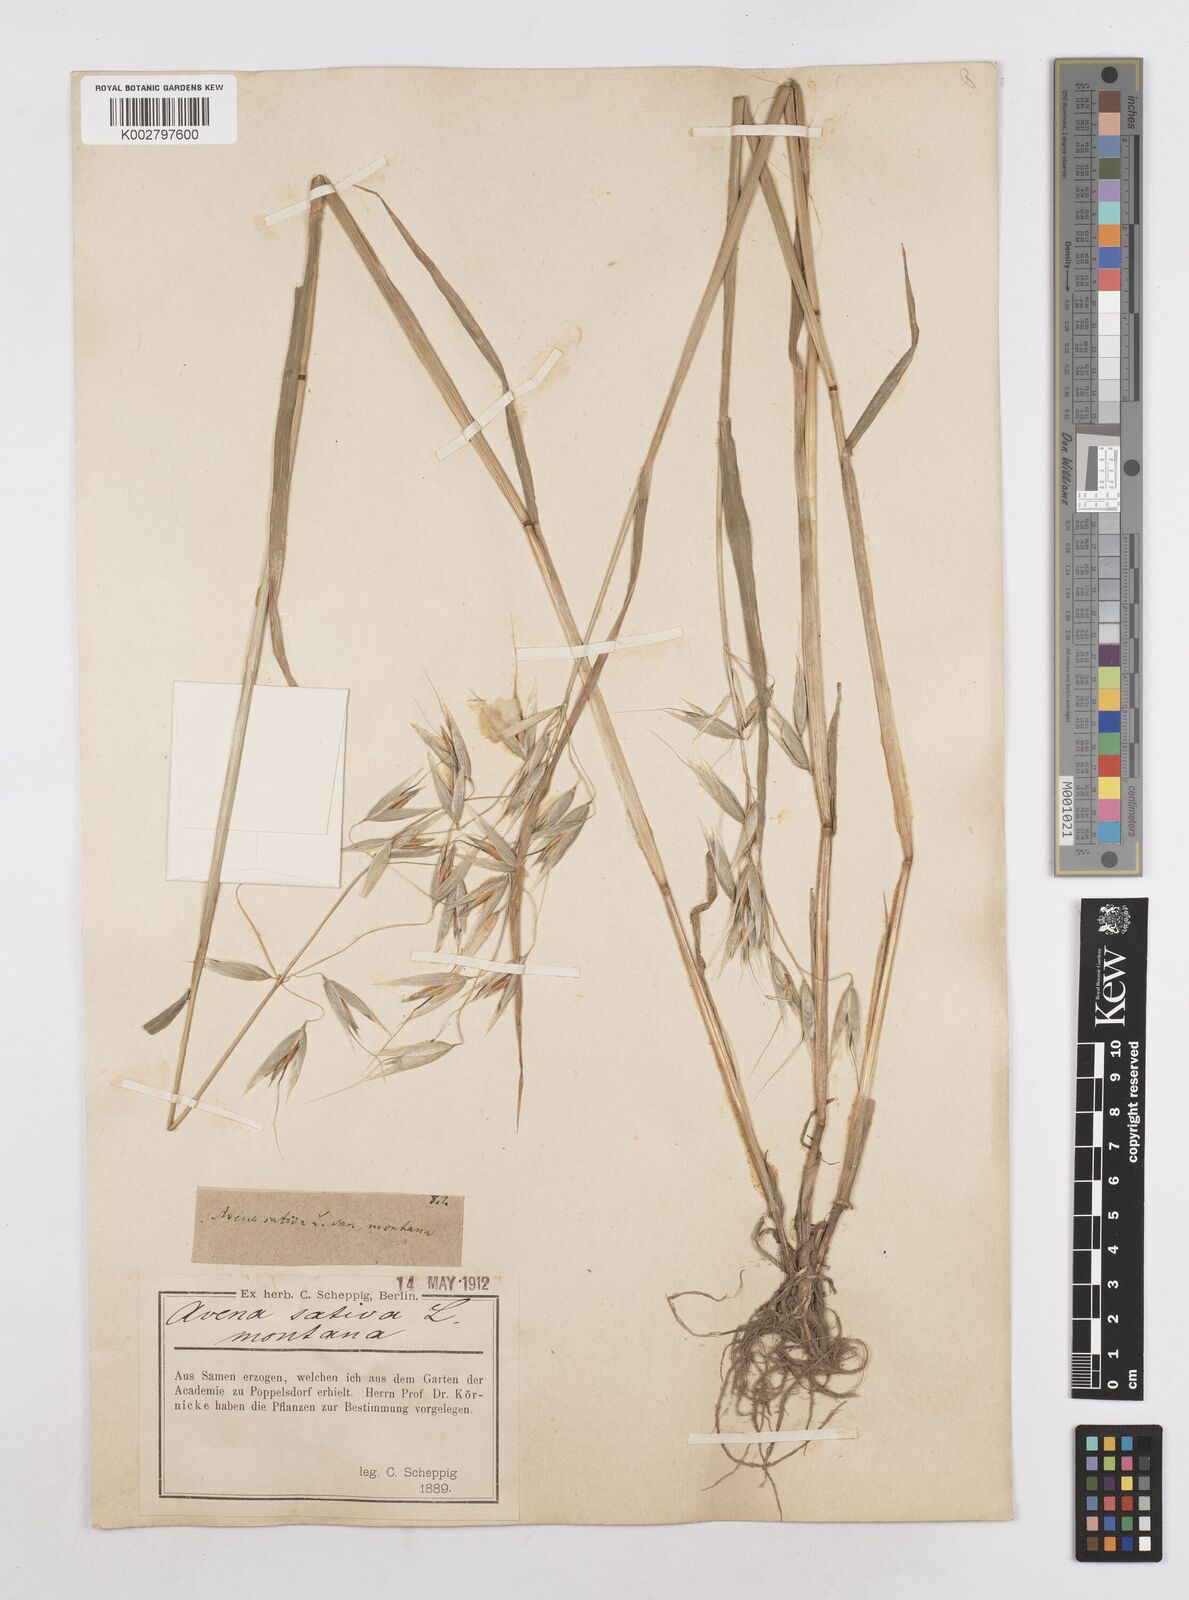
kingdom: Plantae
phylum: Tracheophyta
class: Liliopsida
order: Poales
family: Poaceae
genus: Avena
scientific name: Avena sativa
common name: Oat
